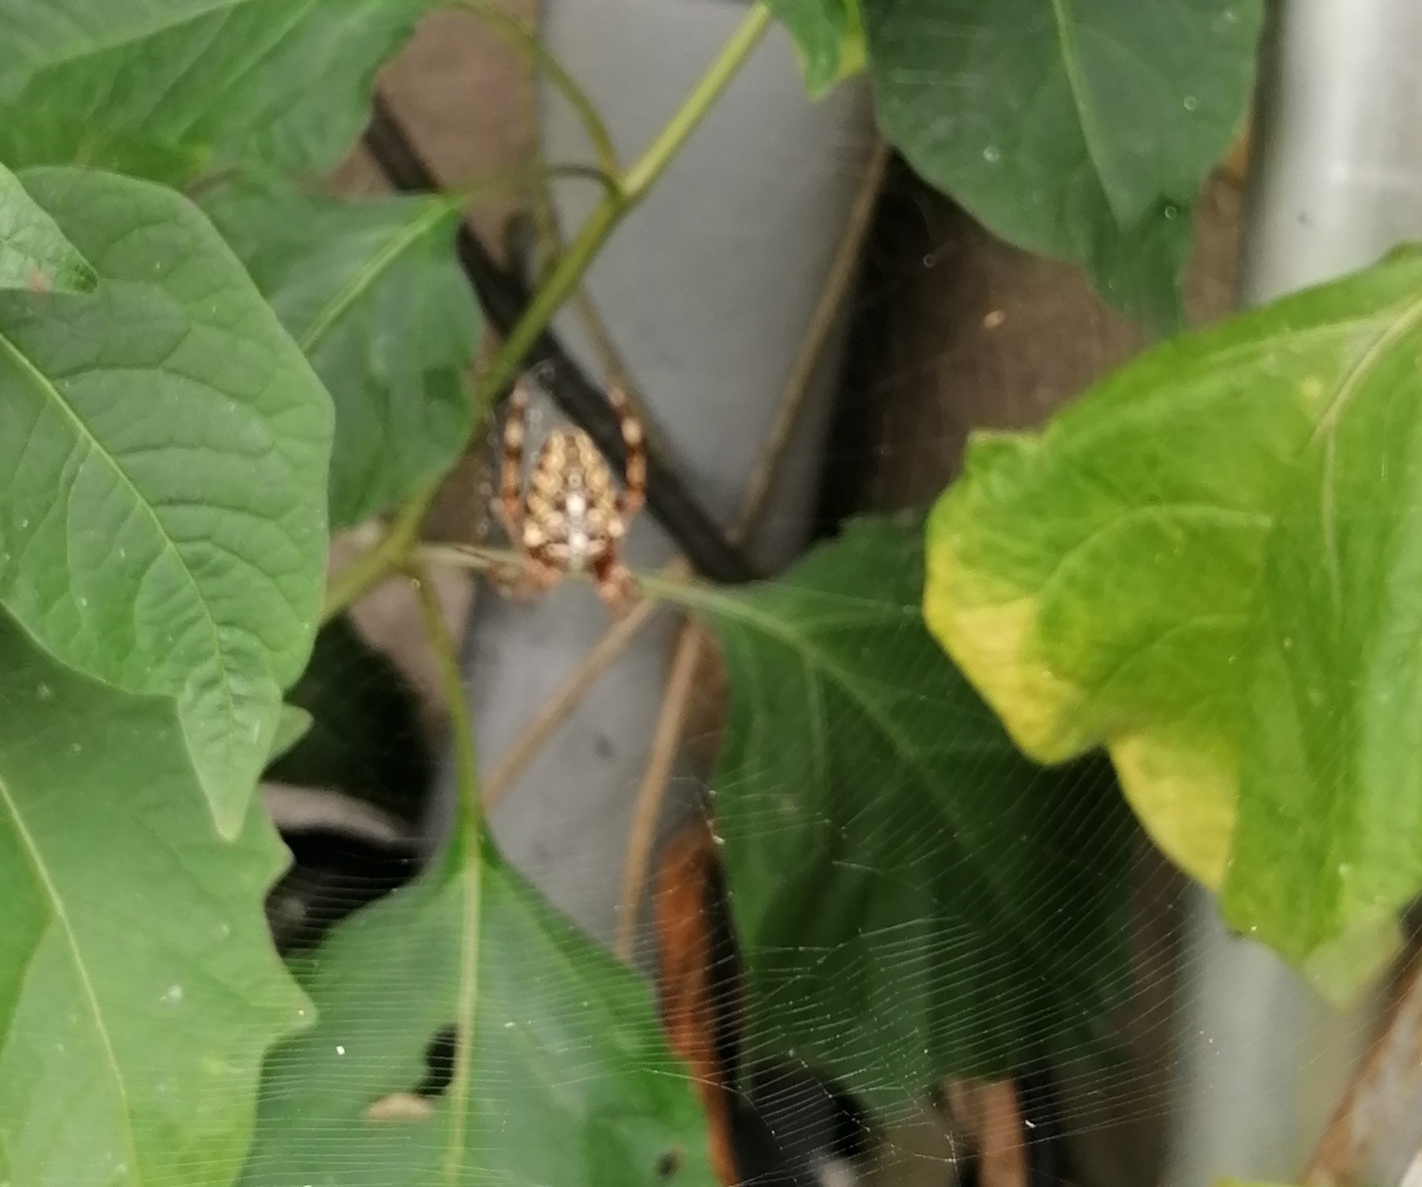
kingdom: Animalia
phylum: Arthropoda
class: Arachnida
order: Araneae
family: Araneidae
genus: Araneus
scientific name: Araneus diadematus
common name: Korsedderkop
